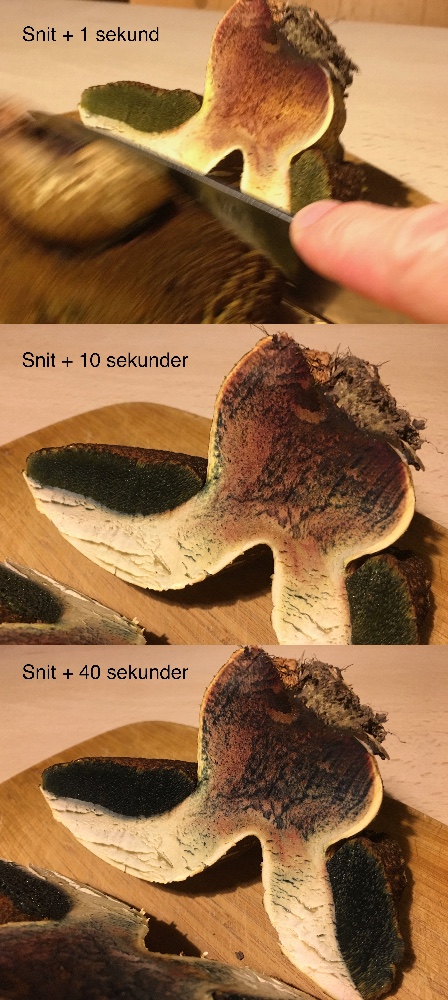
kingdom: Fungi
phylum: Basidiomycota
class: Agaricomycetes
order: Boletales
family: Boletaceae
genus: Suillellus
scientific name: Suillellus luridus
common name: netstokket indigorørhat
